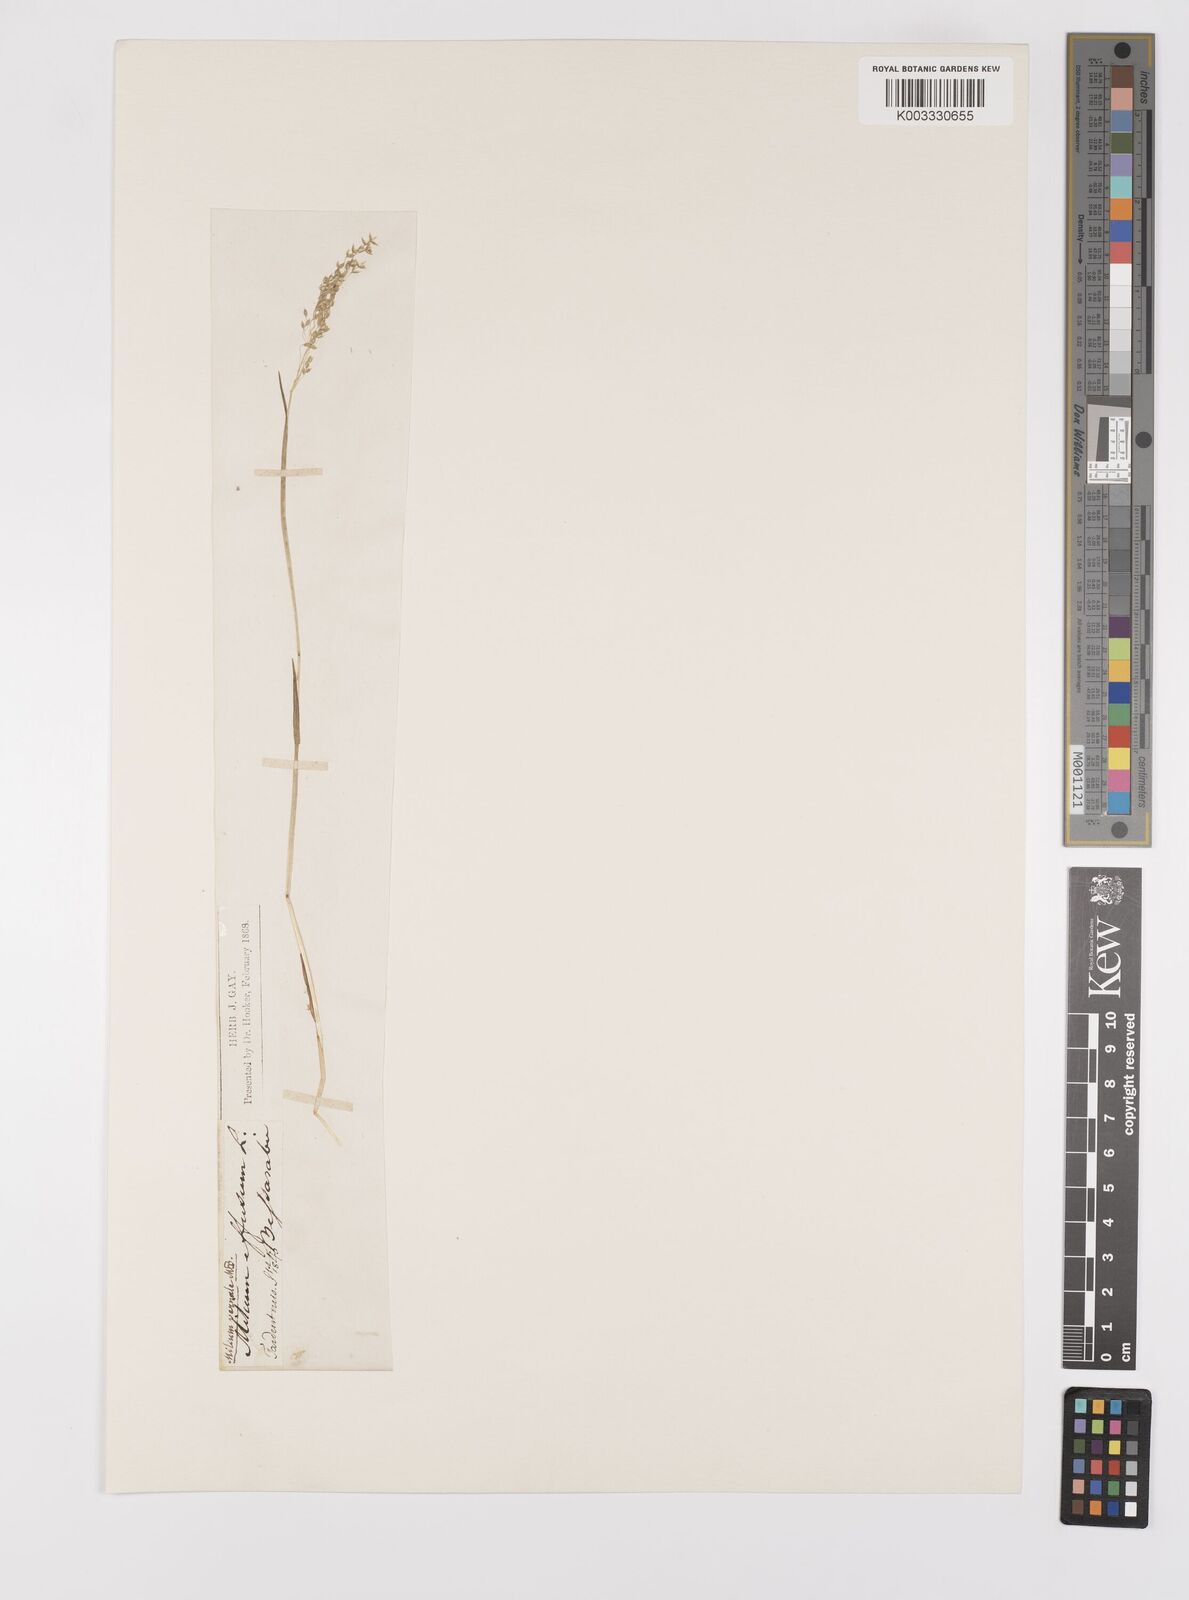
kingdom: Plantae
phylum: Tracheophyta
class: Liliopsida
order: Poales
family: Poaceae
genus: Milium
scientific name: Milium vernale
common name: Early millet
